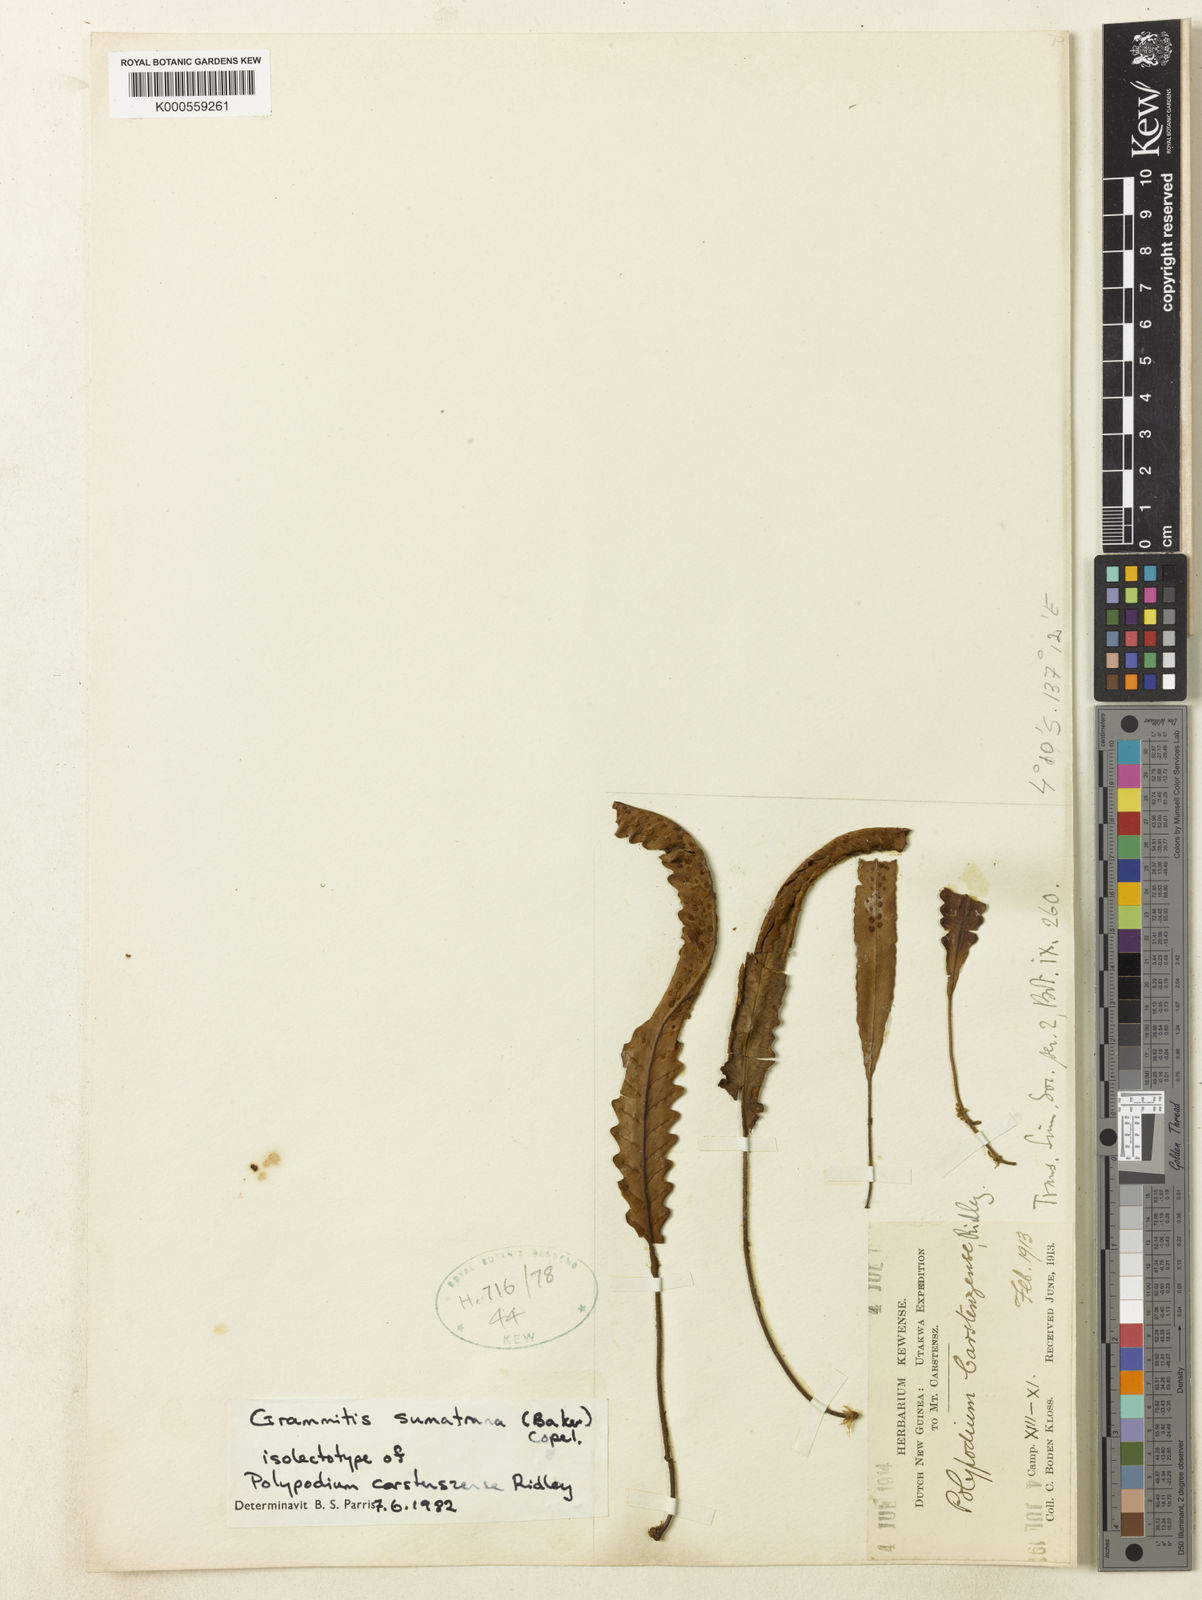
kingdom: Plantae
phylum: Tracheophyta
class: Polypodiopsida
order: Polypodiales
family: Polypodiaceae
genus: Oreogrammitis
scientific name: Oreogrammitis sumatrana
